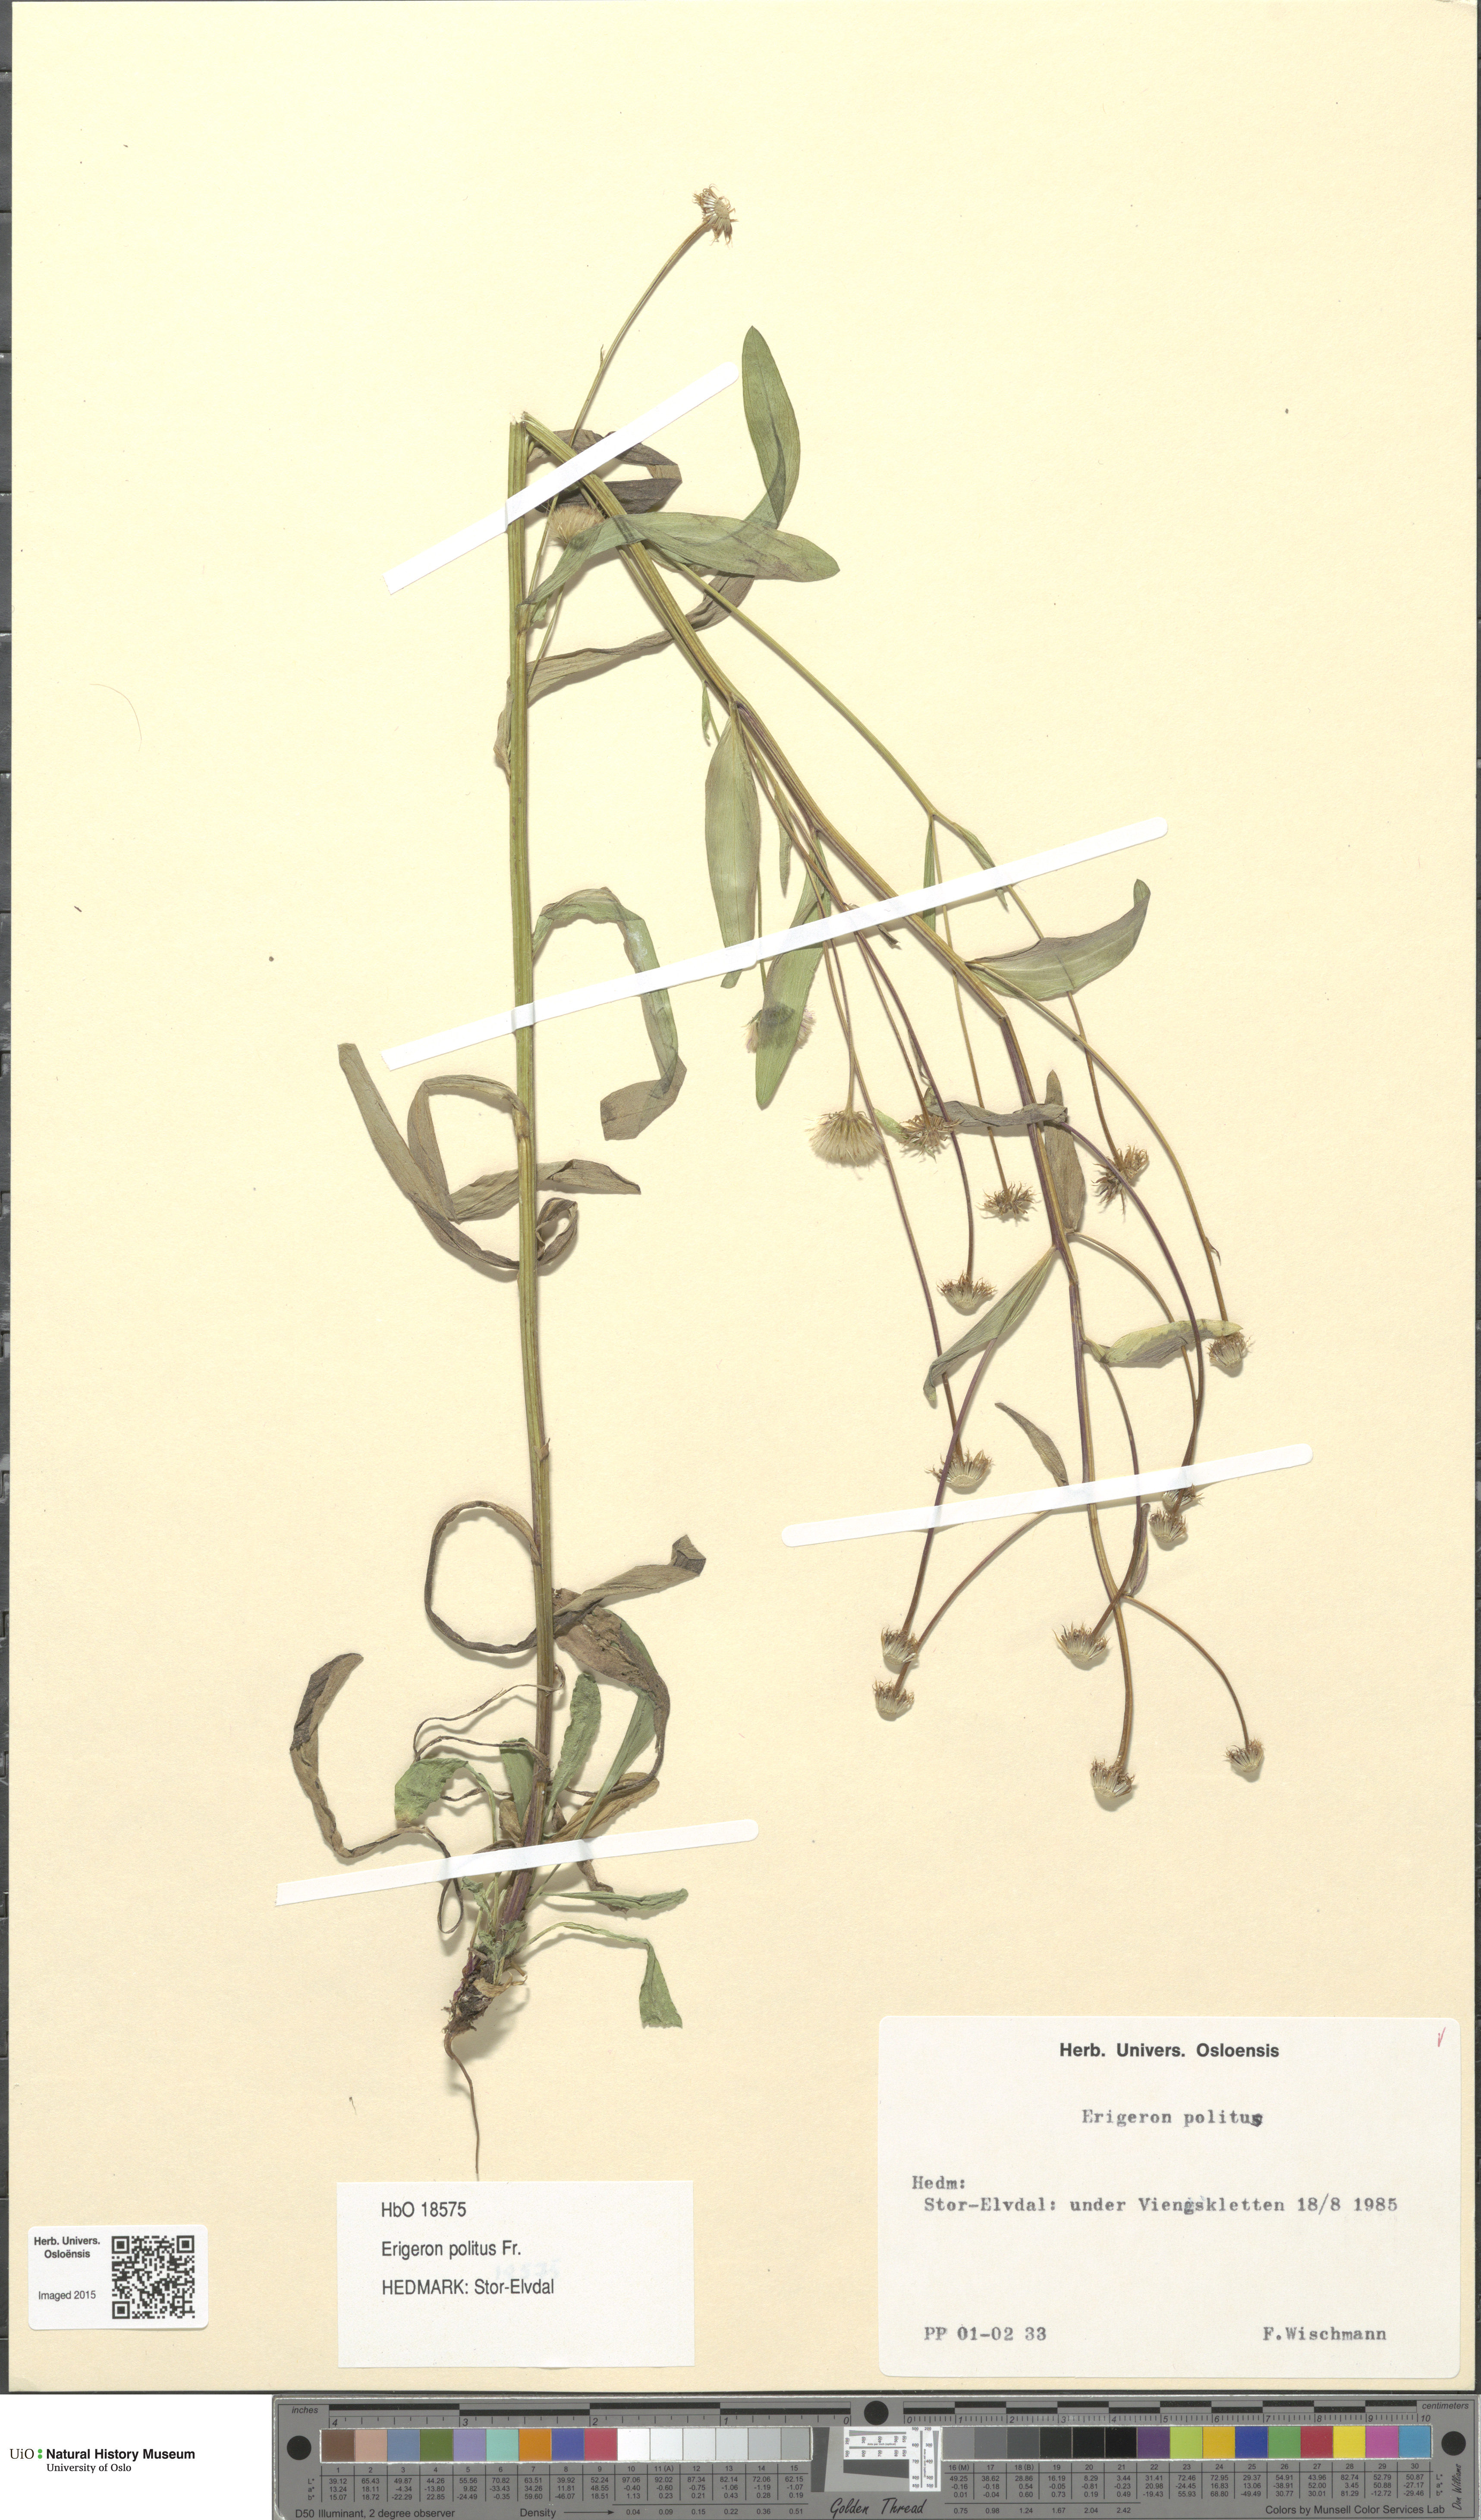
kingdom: Plantae
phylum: Tracheophyta
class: Magnoliopsida
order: Asterales
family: Asteraceae
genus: Erigeron
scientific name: Erigeron politus
